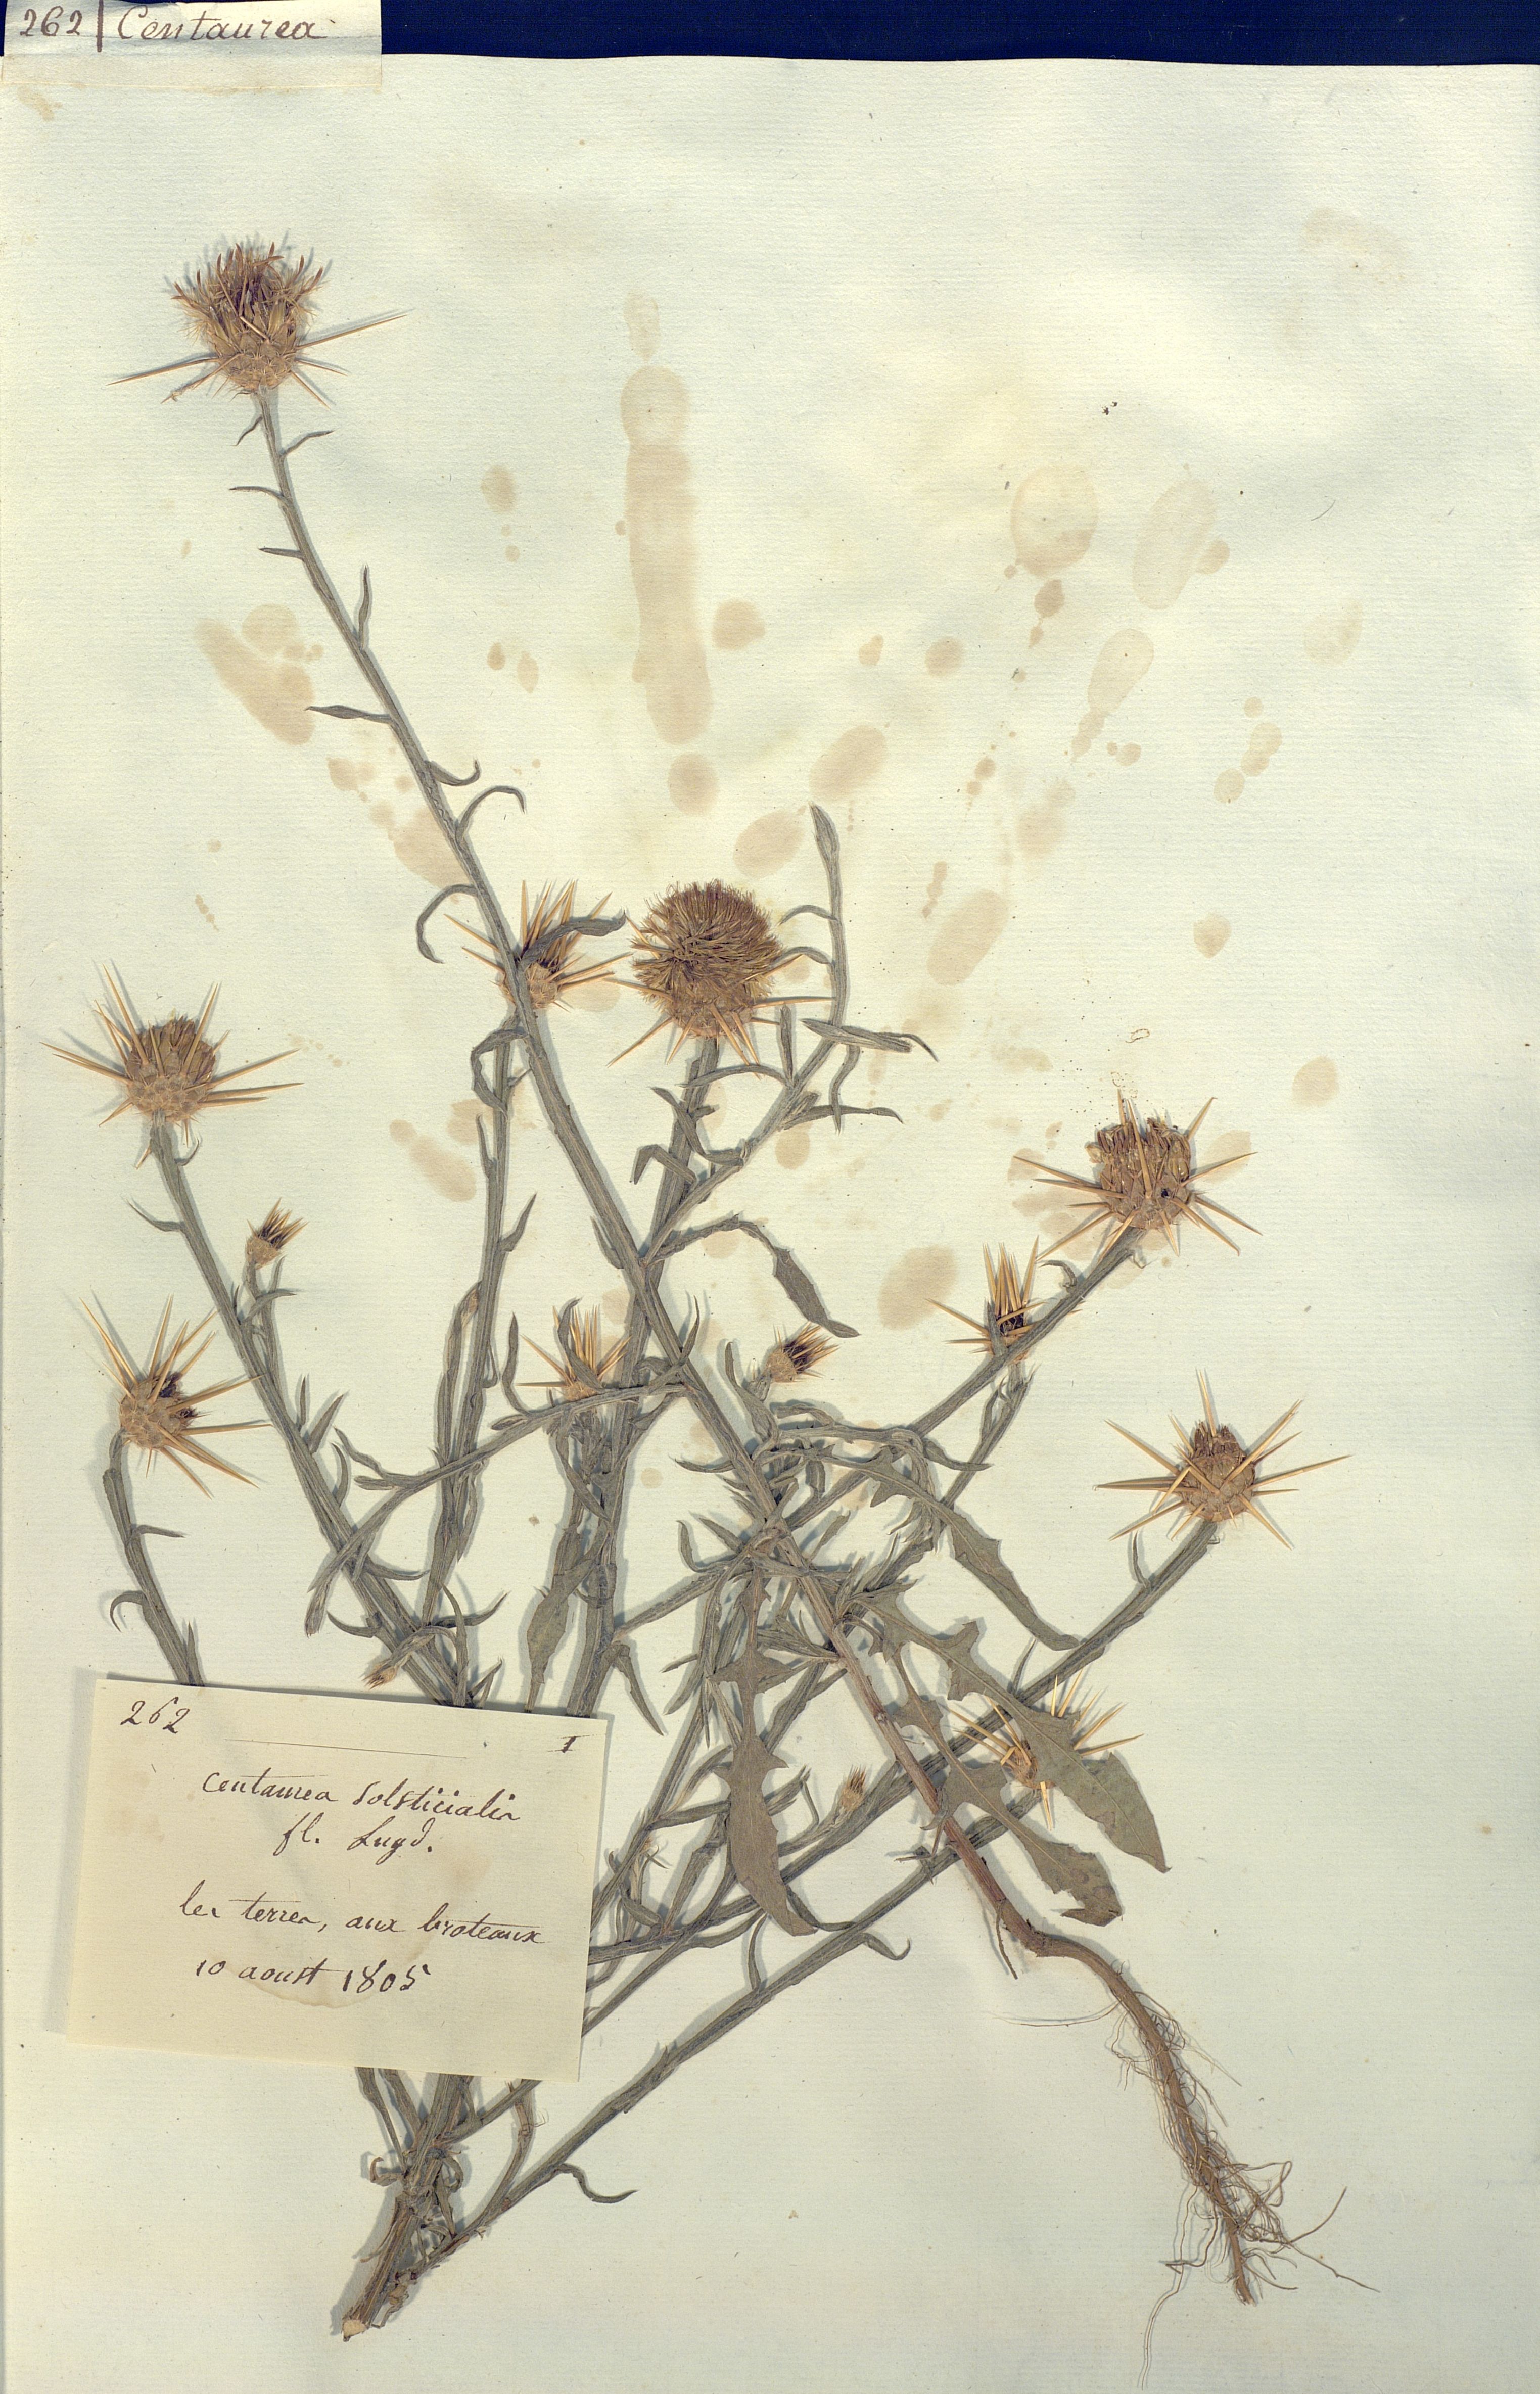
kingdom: Plantae
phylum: Tracheophyta
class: Magnoliopsida
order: Asterales
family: Asteraceae
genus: Centaurea
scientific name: Centaurea solstitialis
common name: Yellow star-thistle
